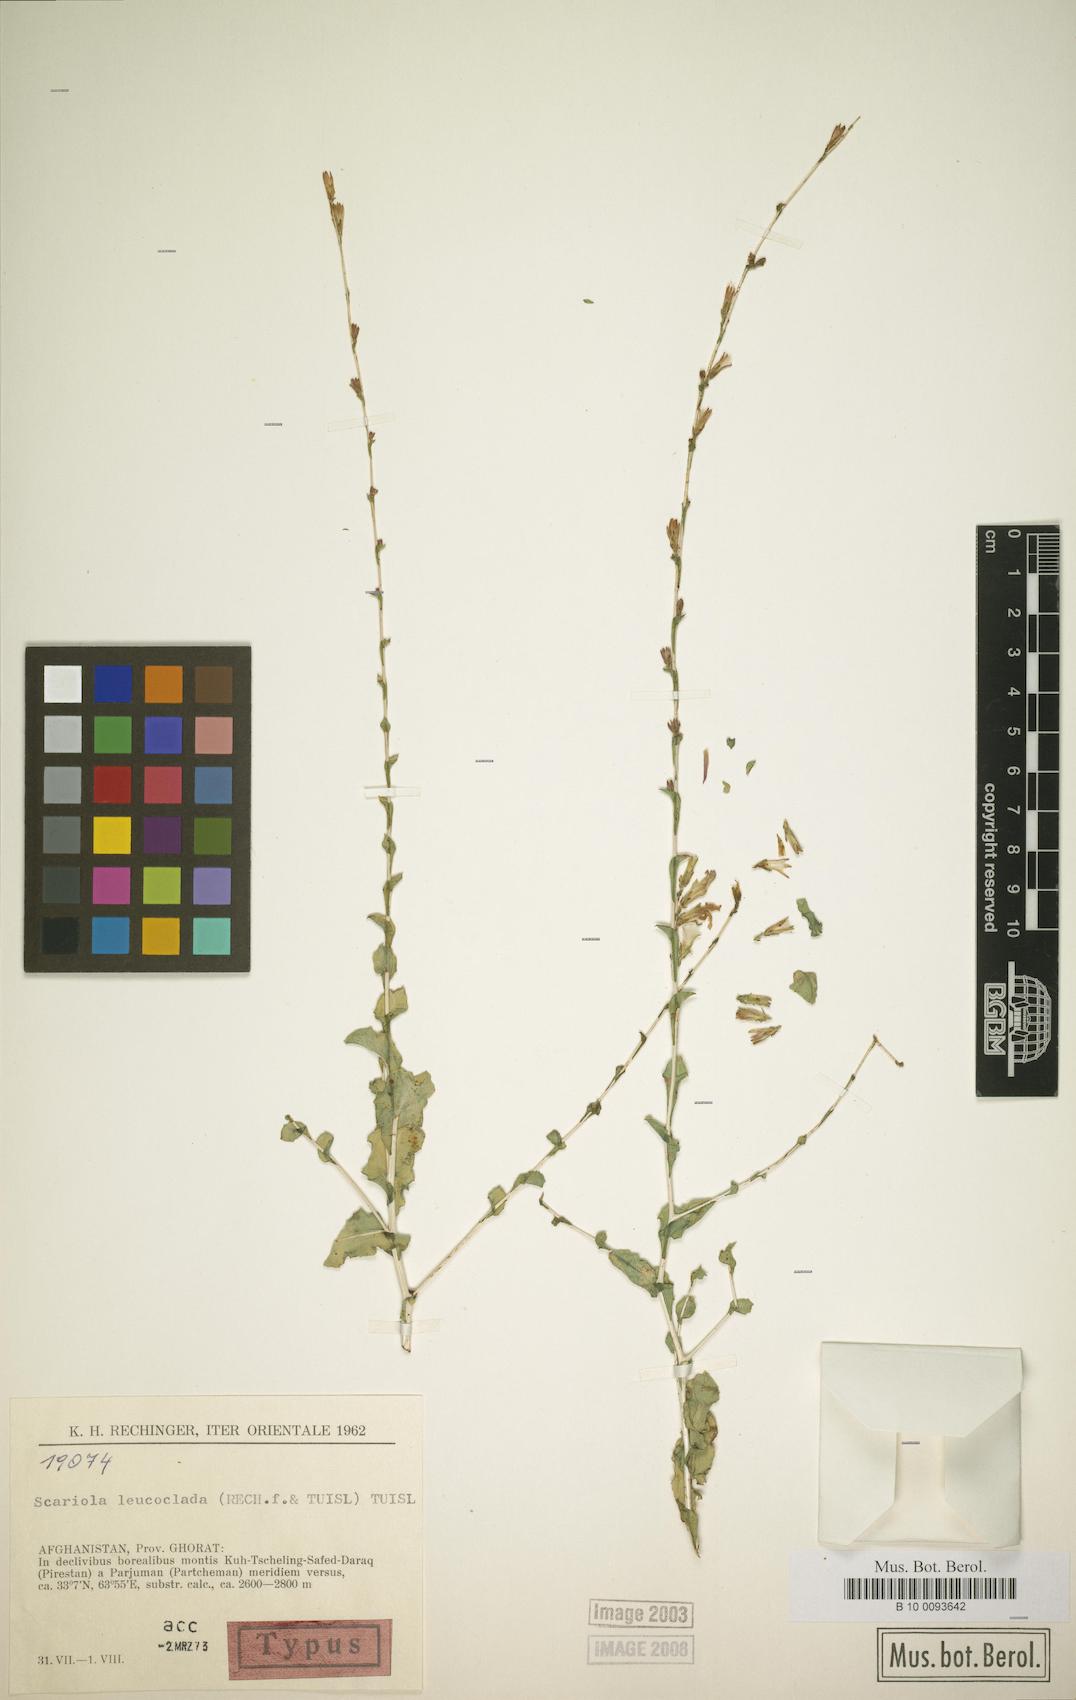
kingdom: Plantae
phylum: Tracheophyta
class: Magnoliopsida
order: Asterales
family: Asteraceae
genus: Lactuca
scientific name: Lactuca leucoclada
